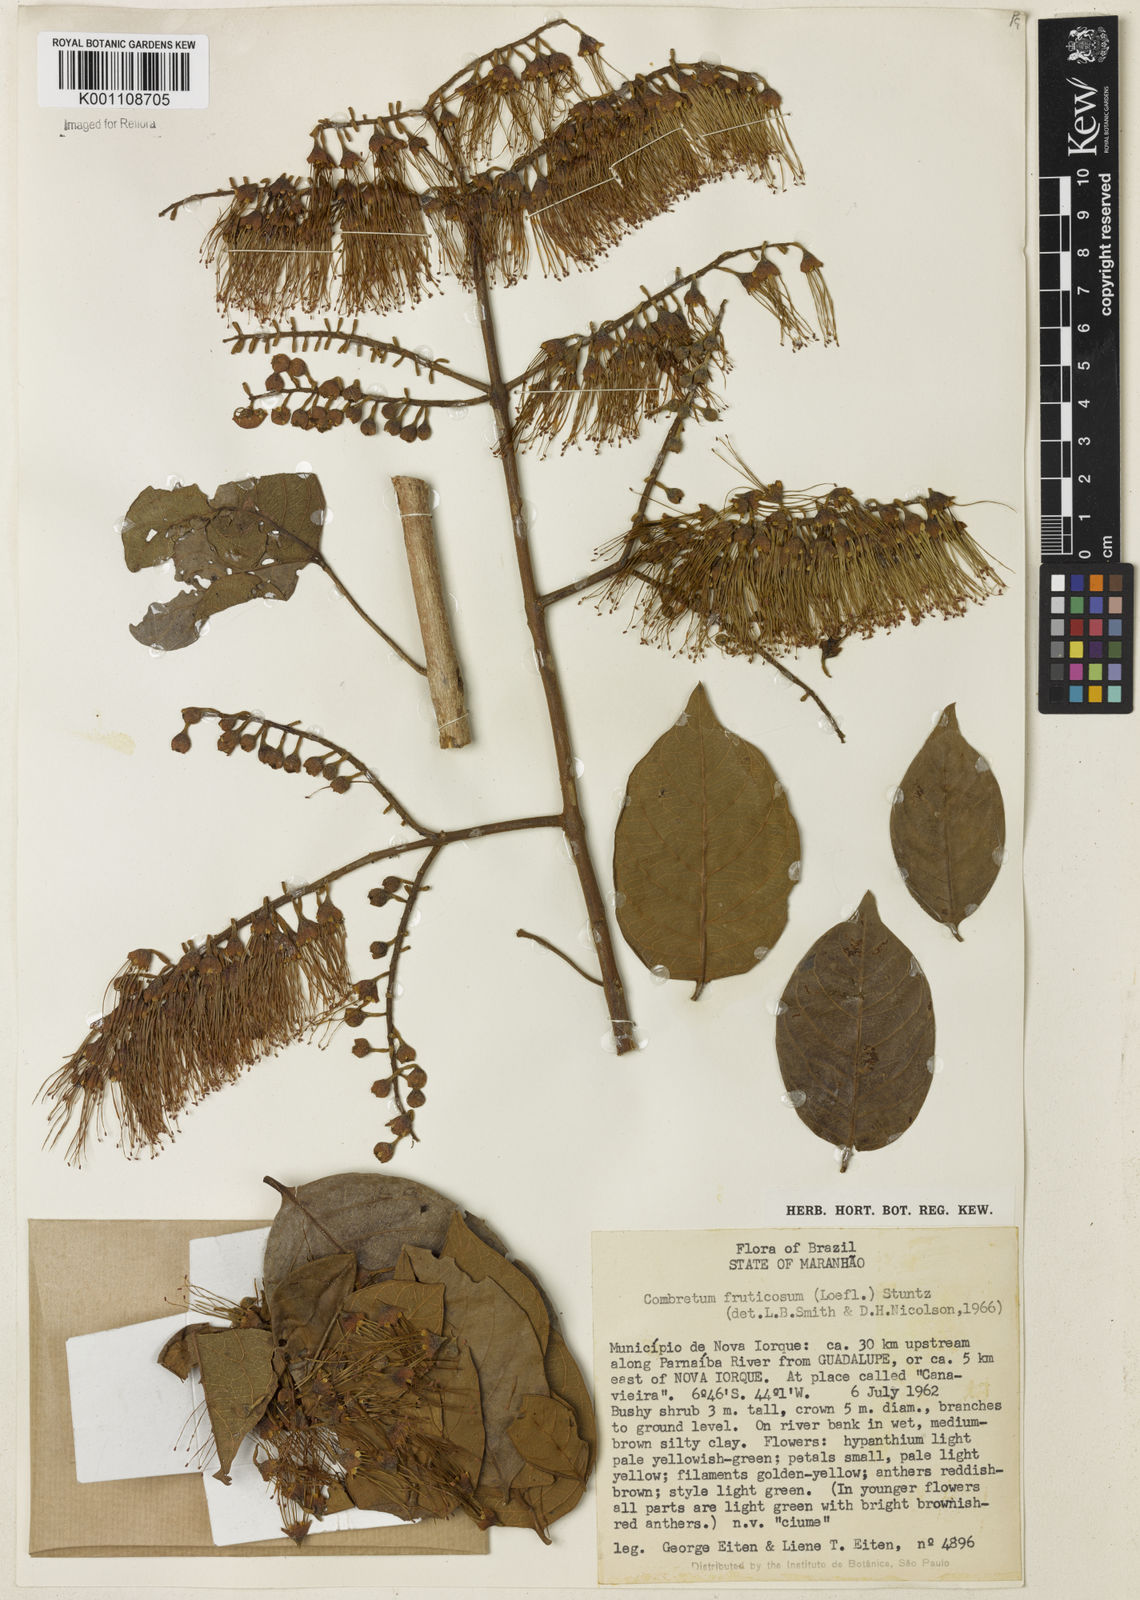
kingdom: Plantae
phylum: Tracheophyta
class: Magnoliopsida
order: Myrtales
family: Combretaceae
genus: Combretum
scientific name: Combretum fruticosum
